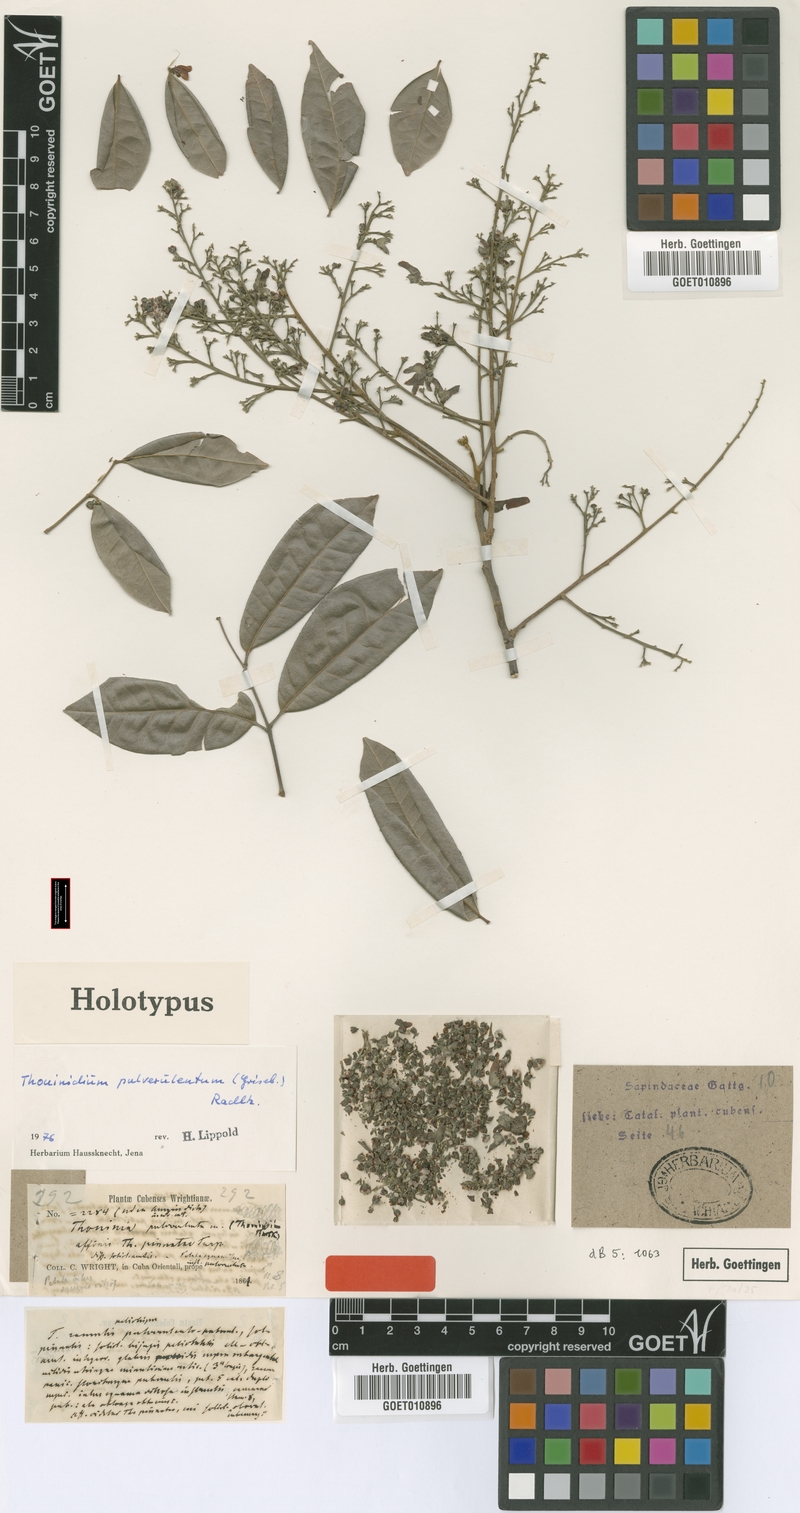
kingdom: Plantae
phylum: Tracheophyta
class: Magnoliopsida
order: Sapindales
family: Sapindaceae
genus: Thouinidium
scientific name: Thouinidium pulverulentum
